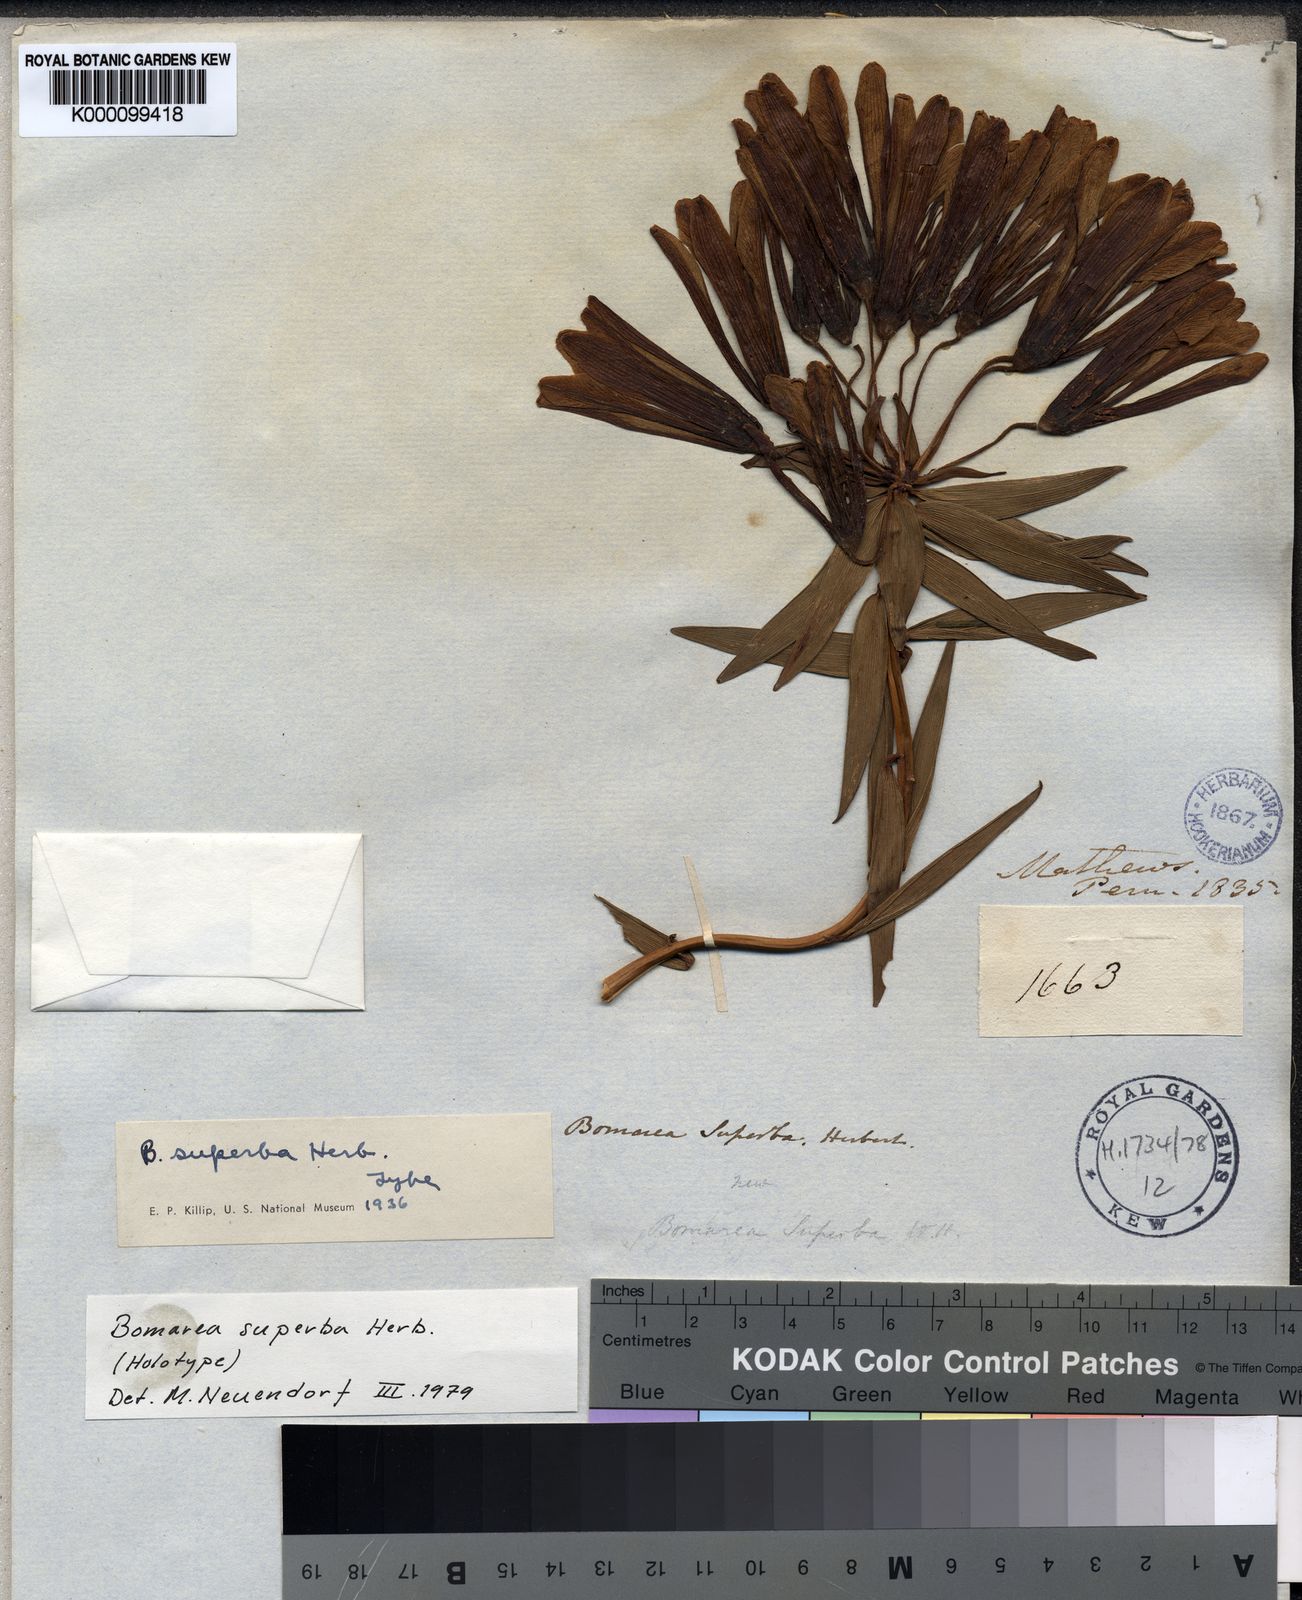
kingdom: Plantae
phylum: Tracheophyta
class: Liliopsida
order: Liliales
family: Alstroemeriaceae
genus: Bomarea
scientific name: Bomarea superba
